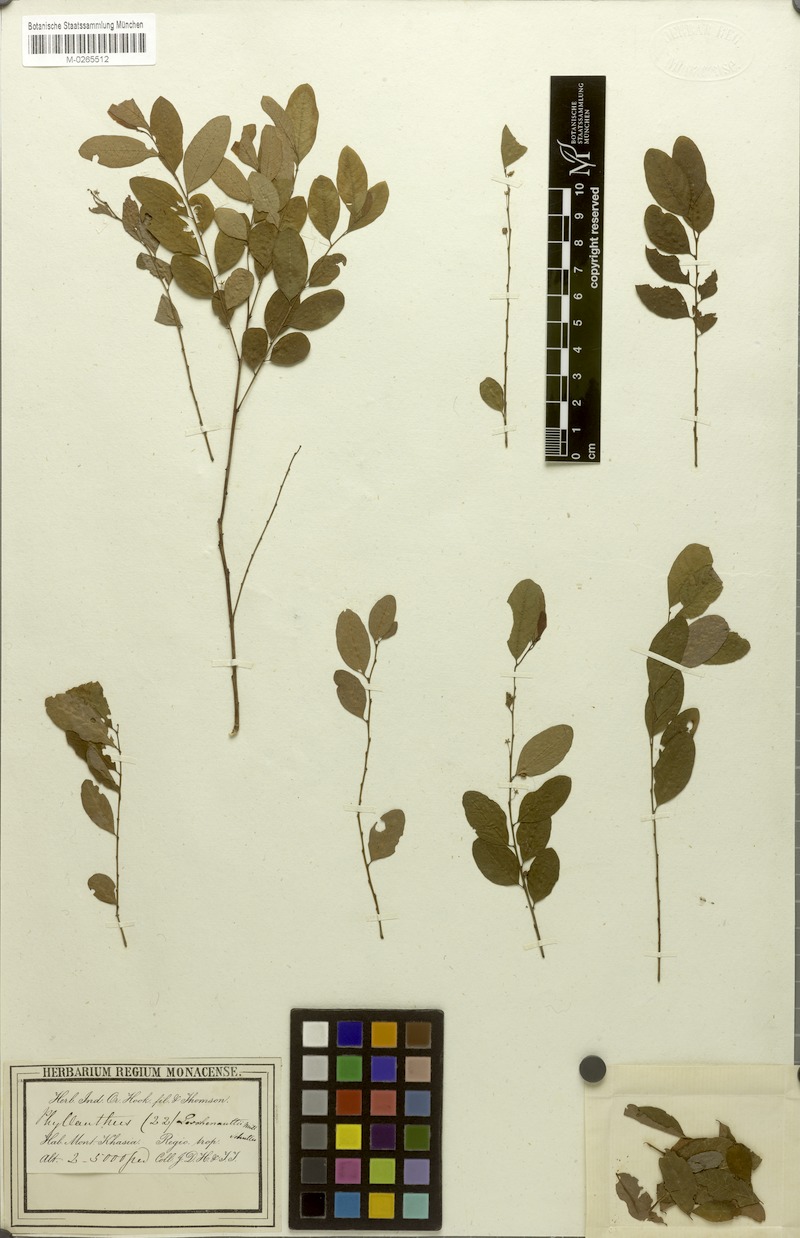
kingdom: Plantae
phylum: Tracheophyta
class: Magnoliopsida
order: Malpighiales
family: Phyllanthaceae
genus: Phyllanthus
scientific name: Phyllanthus leschenaultii
